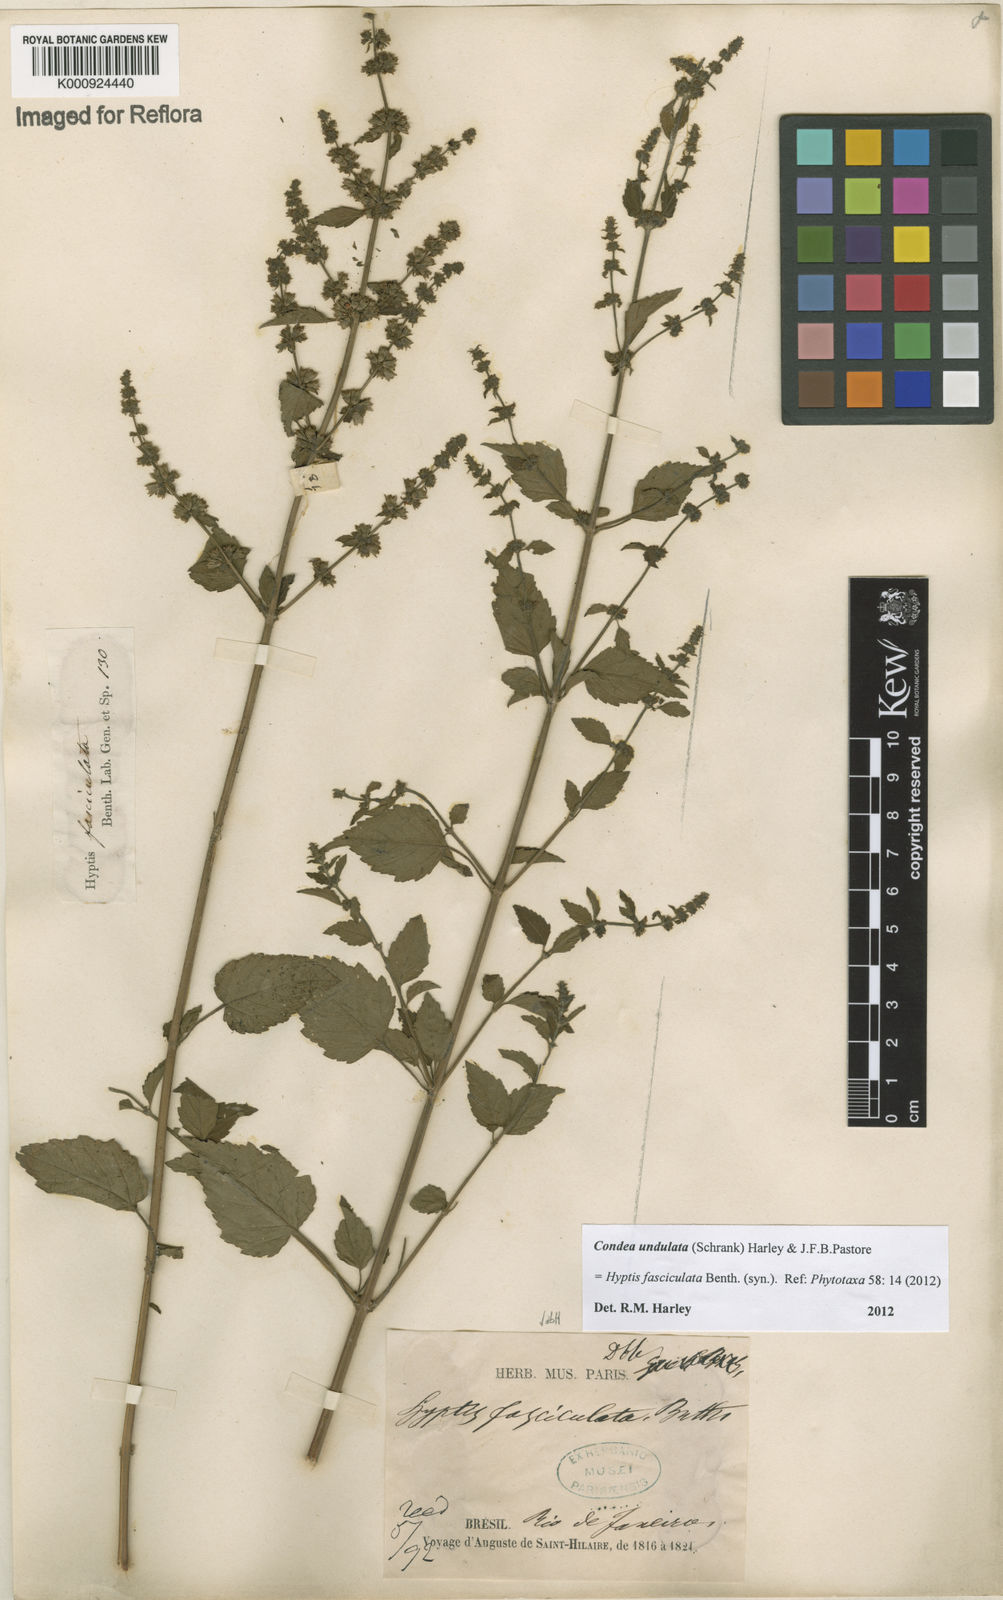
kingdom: Plantae
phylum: Tracheophyta
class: Magnoliopsida
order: Lamiales
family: Lamiaceae
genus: Condea
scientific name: Condea undulata
